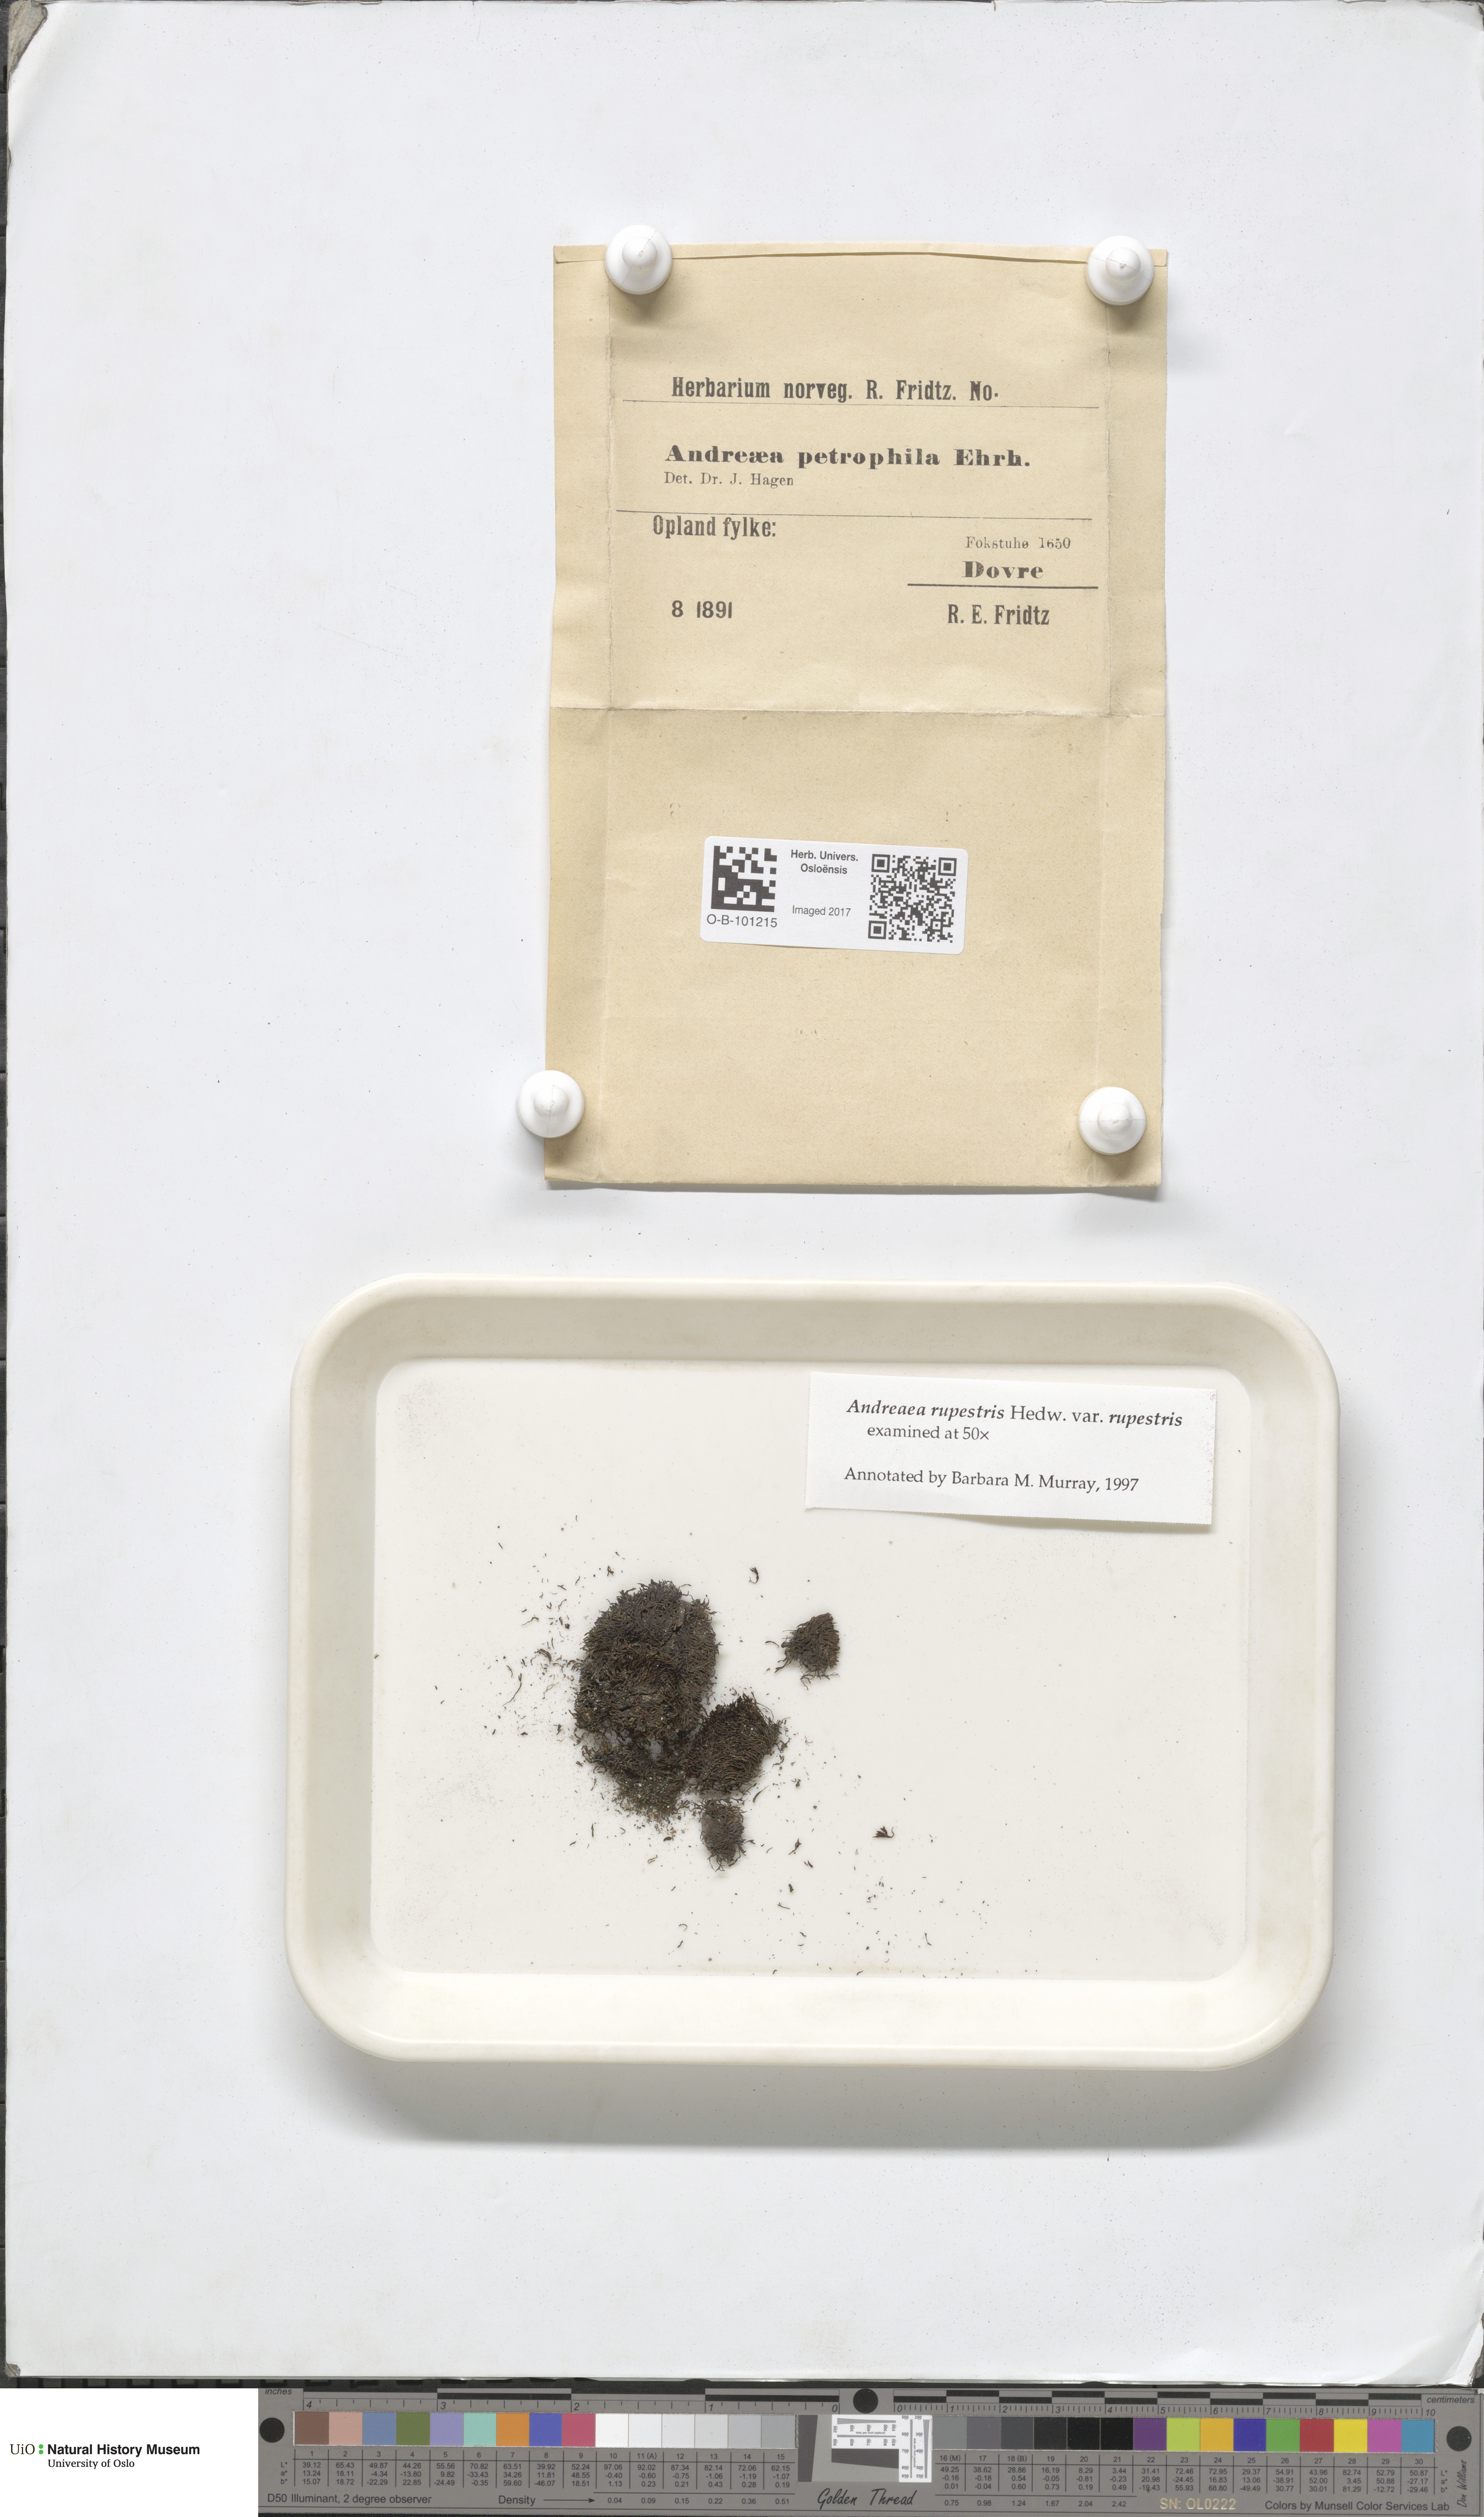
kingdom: Plantae
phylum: Bryophyta
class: Andreaeopsida
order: Andreaeales
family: Andreaeaceae
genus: Andreaea
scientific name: Andreaea rupestris
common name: Black rock moss
